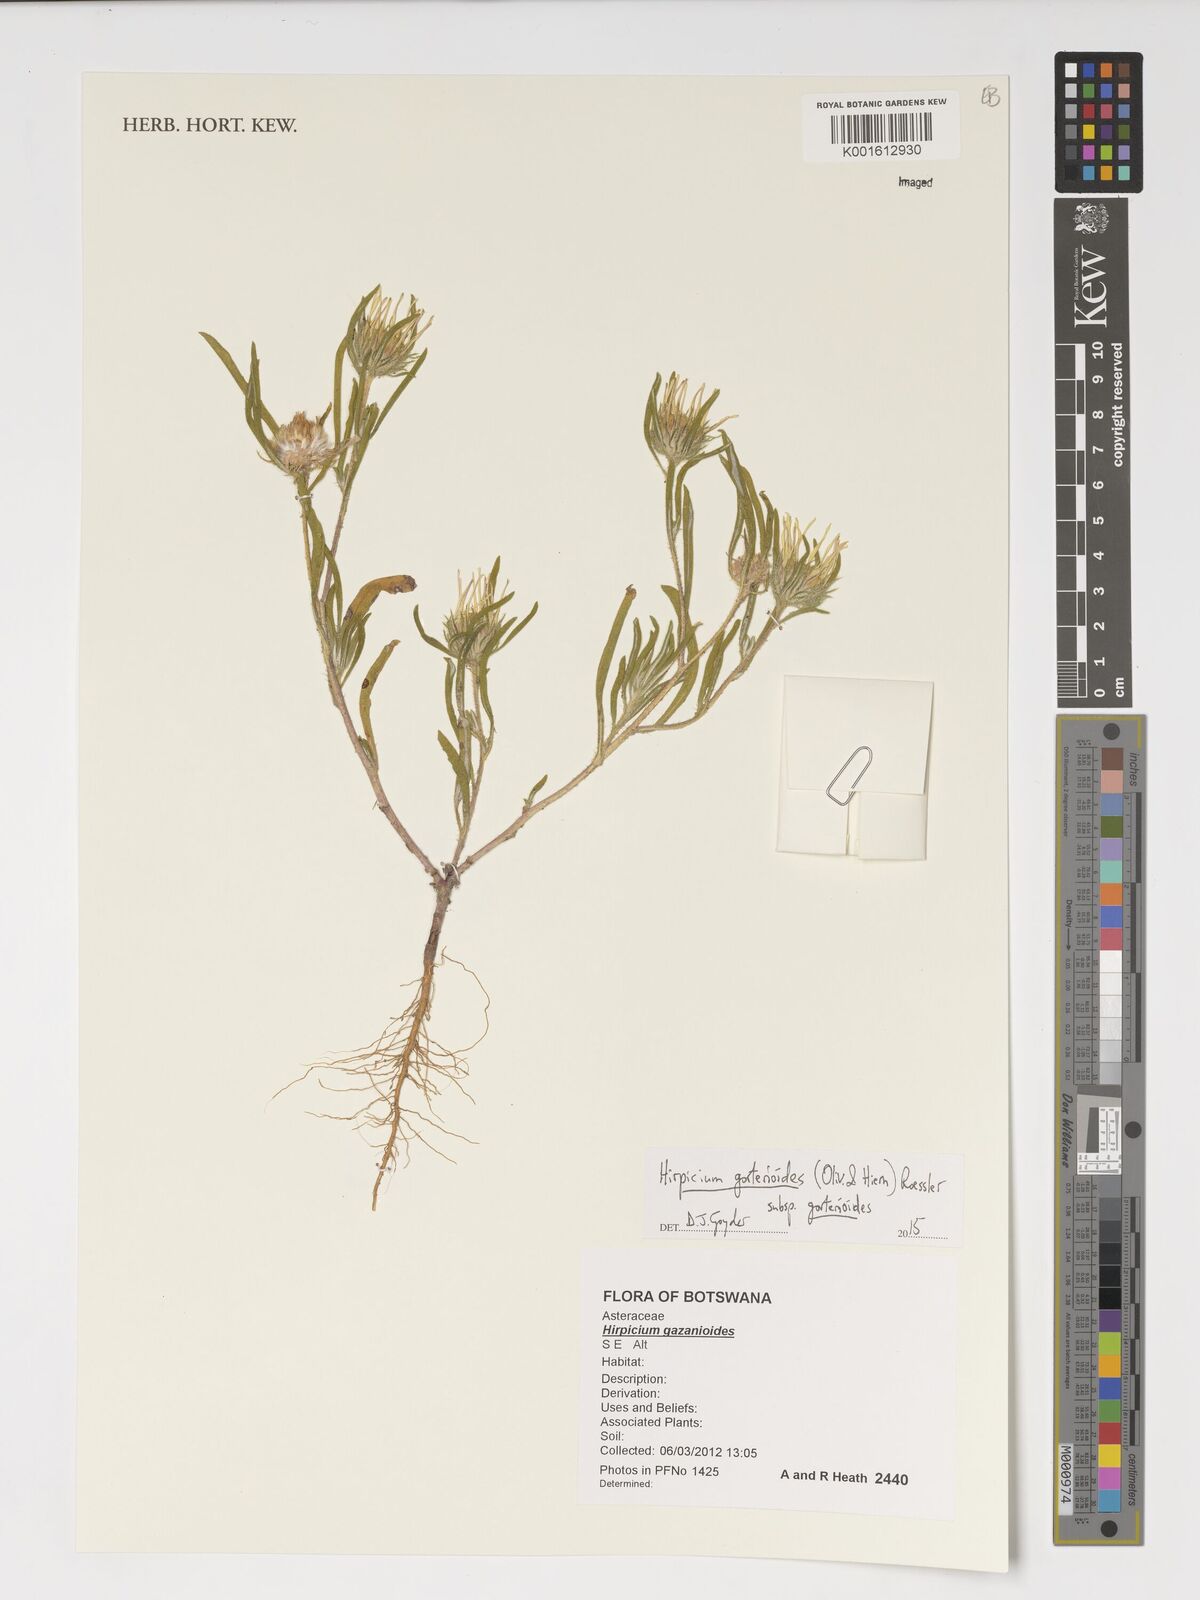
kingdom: Plantae
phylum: Tracheophyta
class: Magnoliopsida
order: Asterales
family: Asteraceae
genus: Roessleria
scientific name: Roessleria gorterioides
